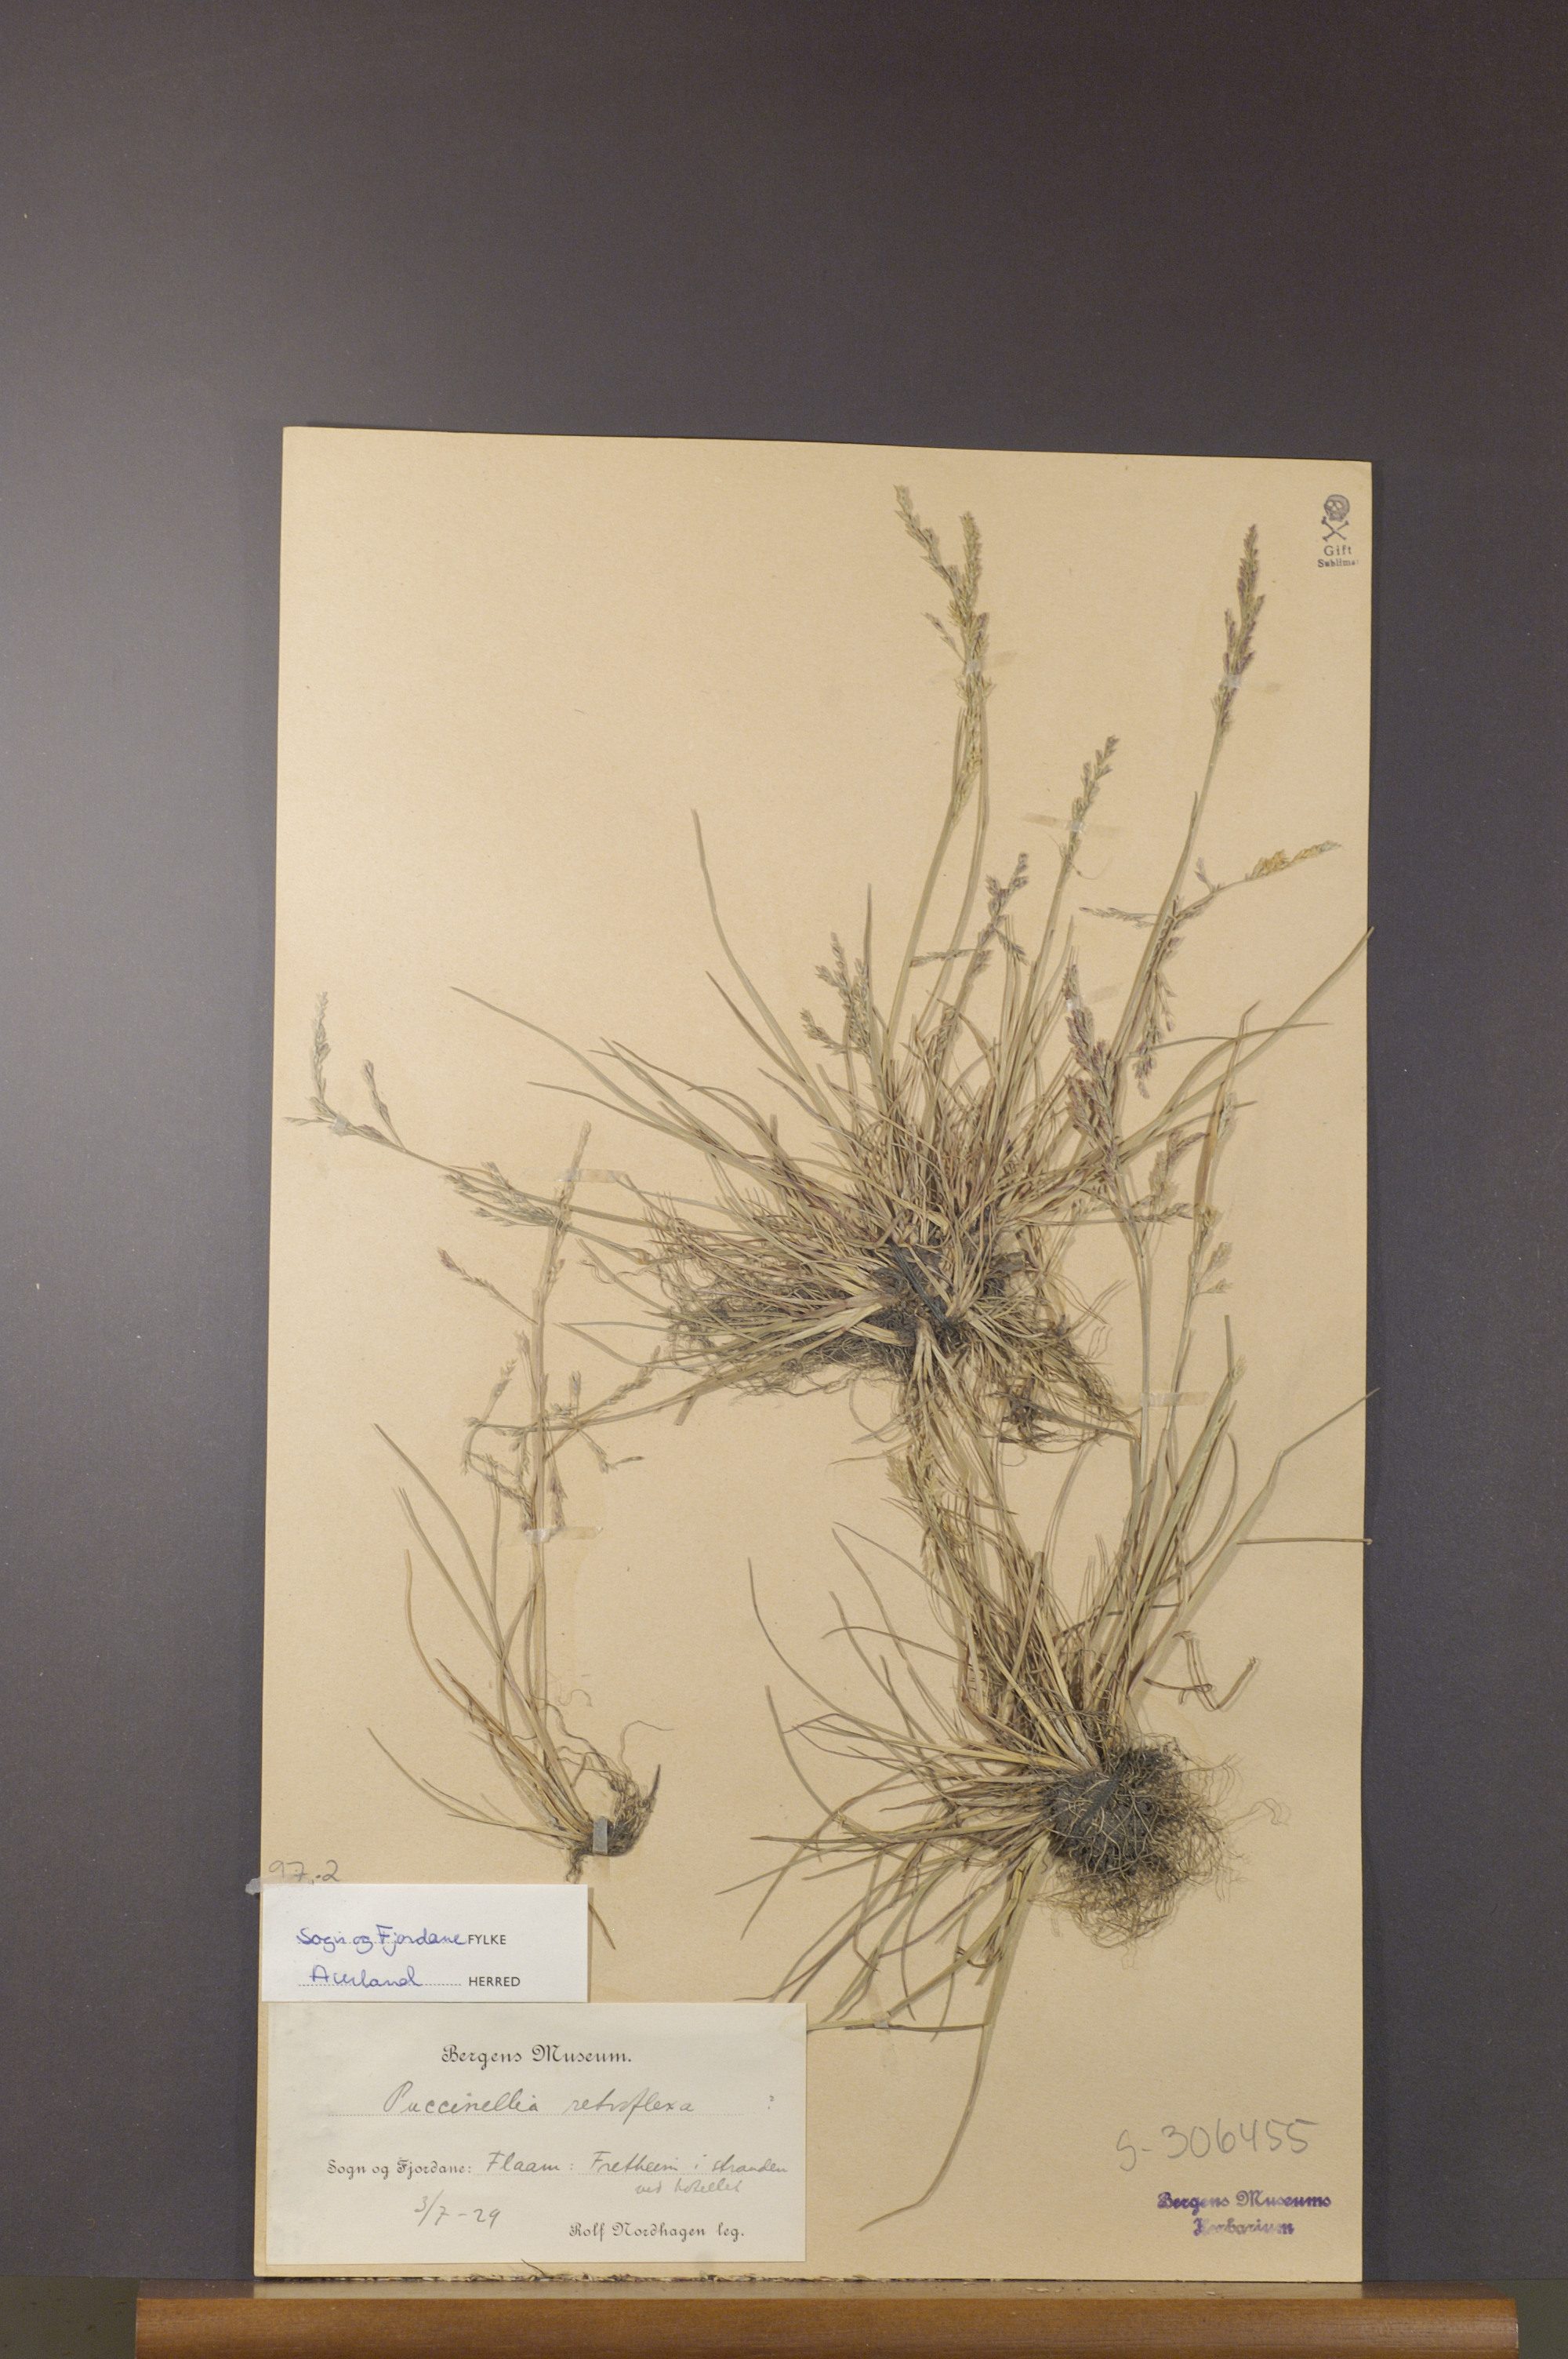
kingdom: Plantae
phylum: Tracheophyta
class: Liliopsida
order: Poales
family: Poaceae
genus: Puccinellia
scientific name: Puccinellia distans
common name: Weeping alkaligrass
